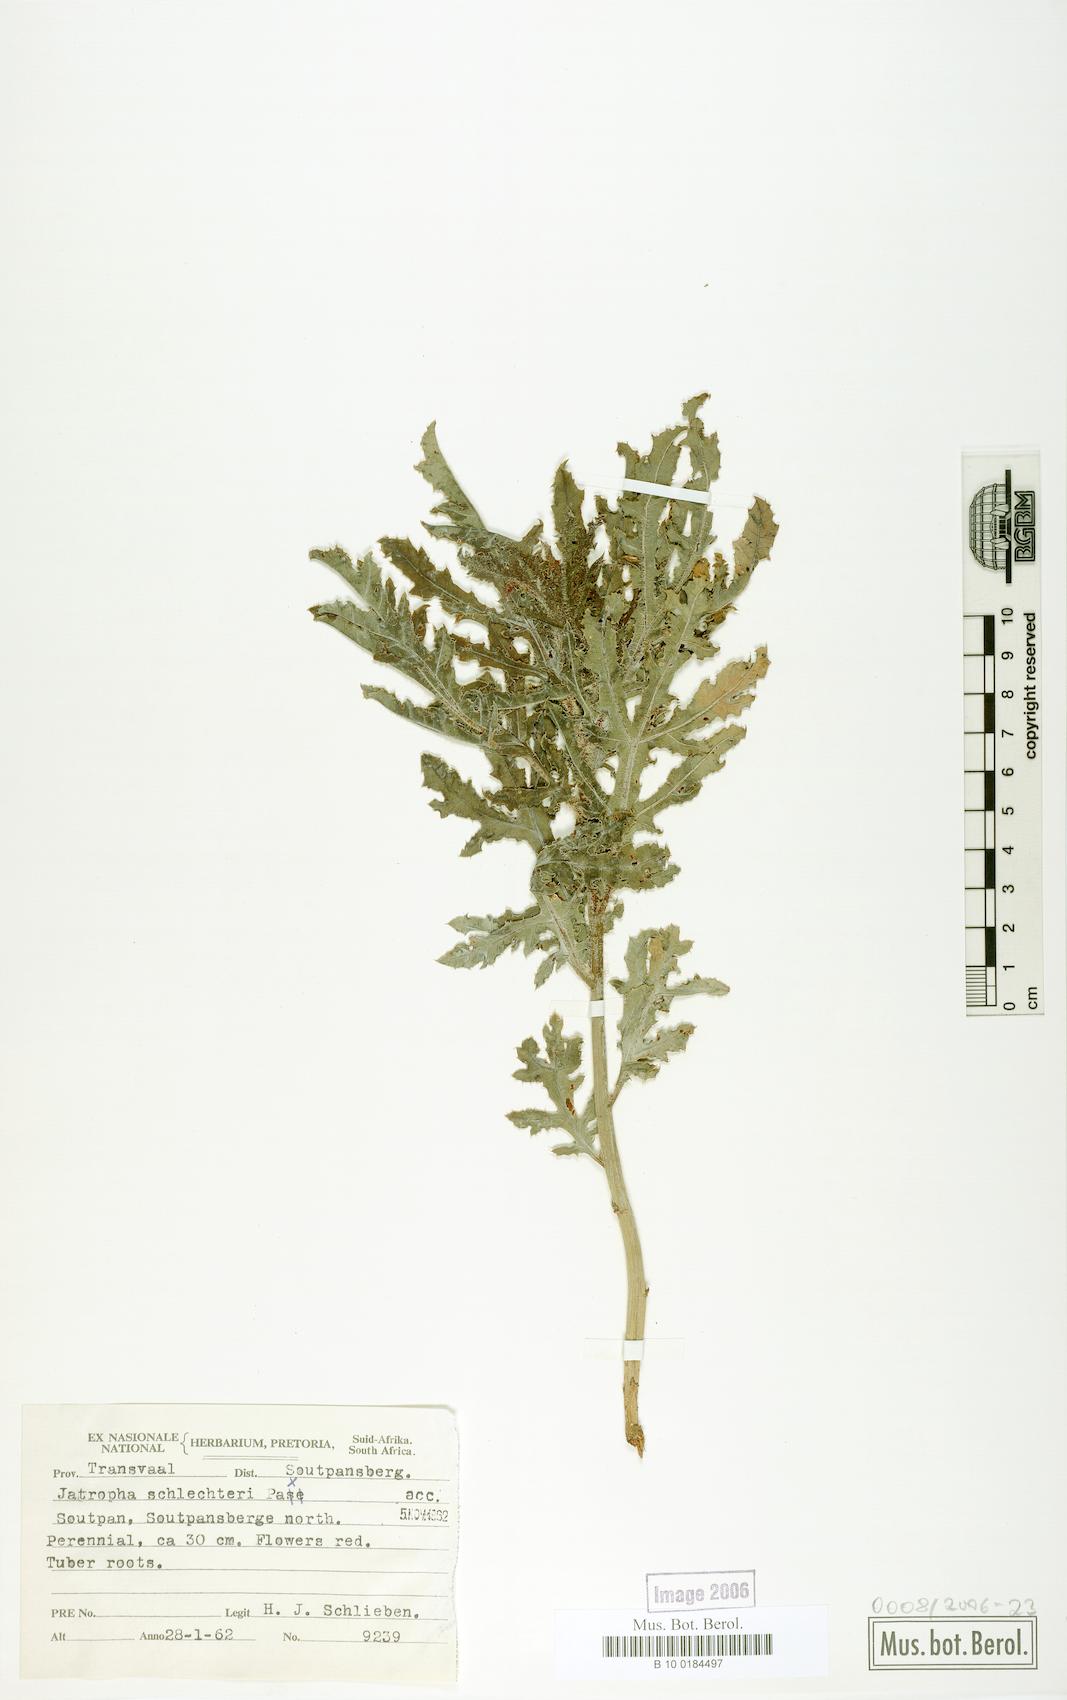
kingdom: Plantae
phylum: Tracheophyta
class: Magnoliopsida
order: Malpighiales
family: Euphorbiaceae
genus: Jatropha
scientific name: Jatropha schlechteri
